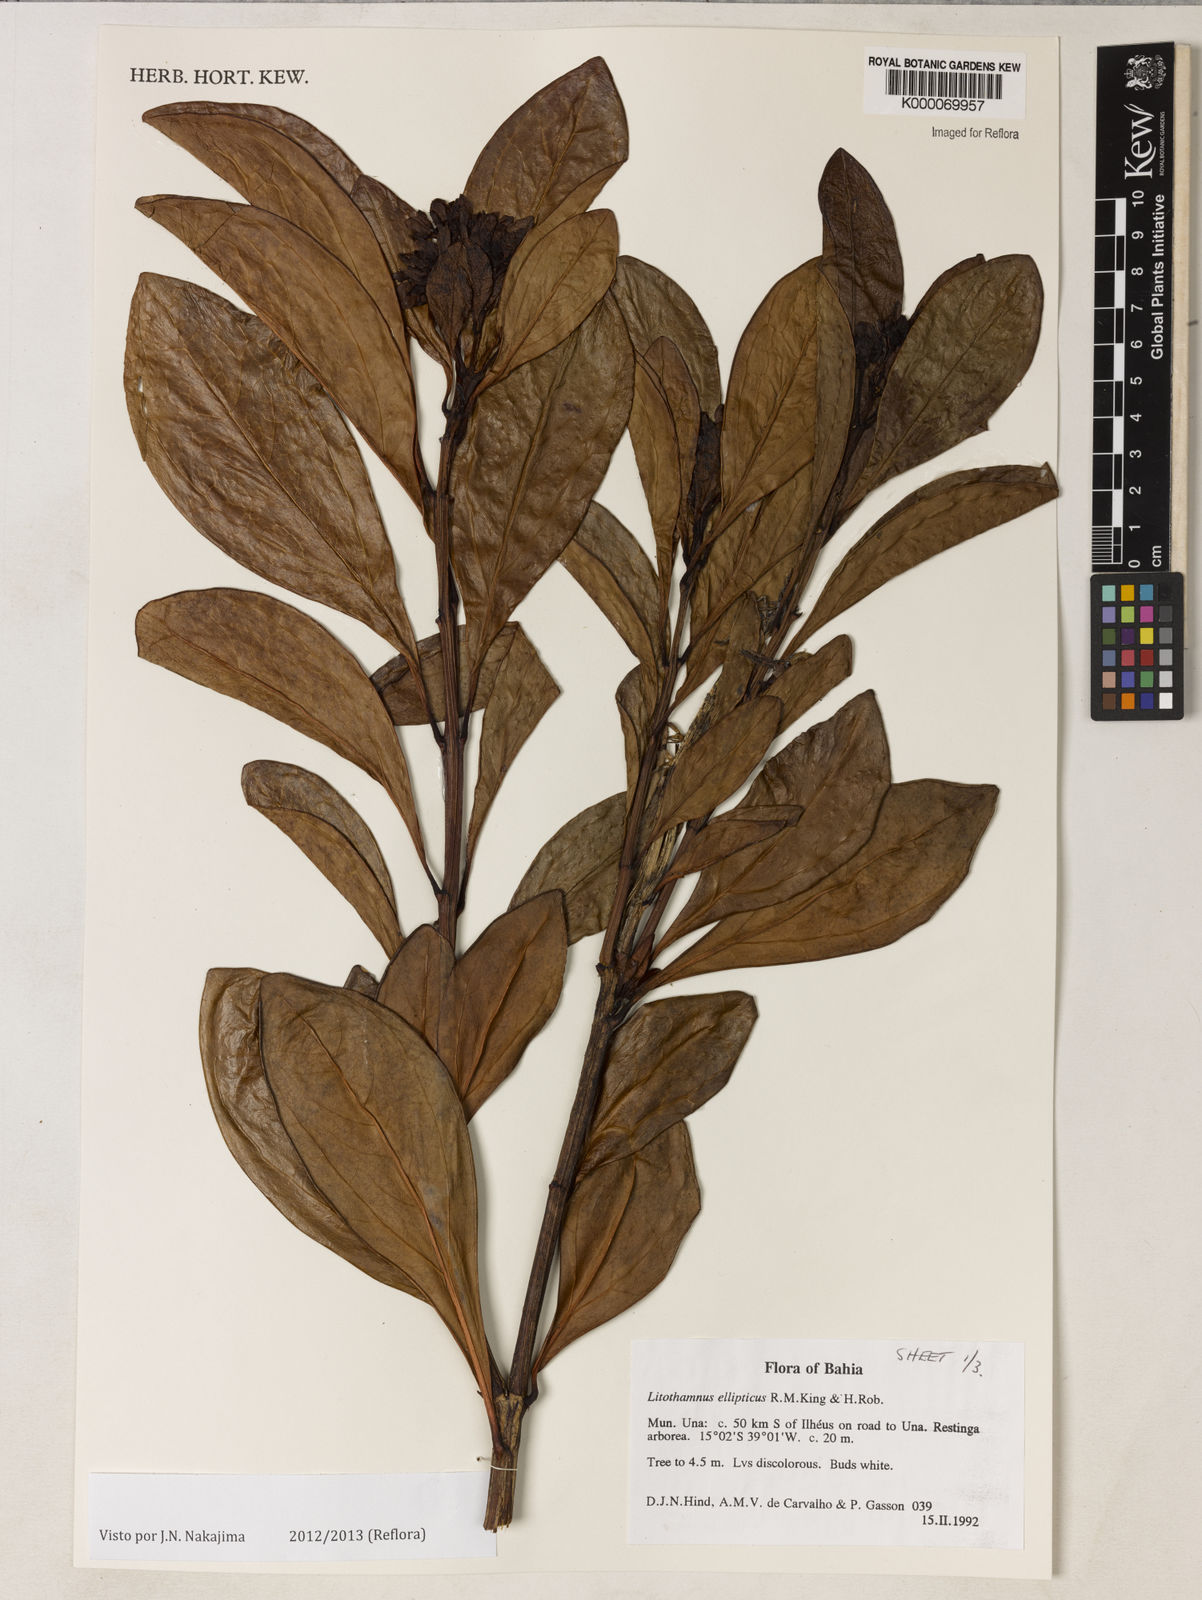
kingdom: Plantae
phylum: Tracheophyta
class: Magnoliopsida
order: Asterales
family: Asteraceae
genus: Litothamnus
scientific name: Litothamnus ellipticus
